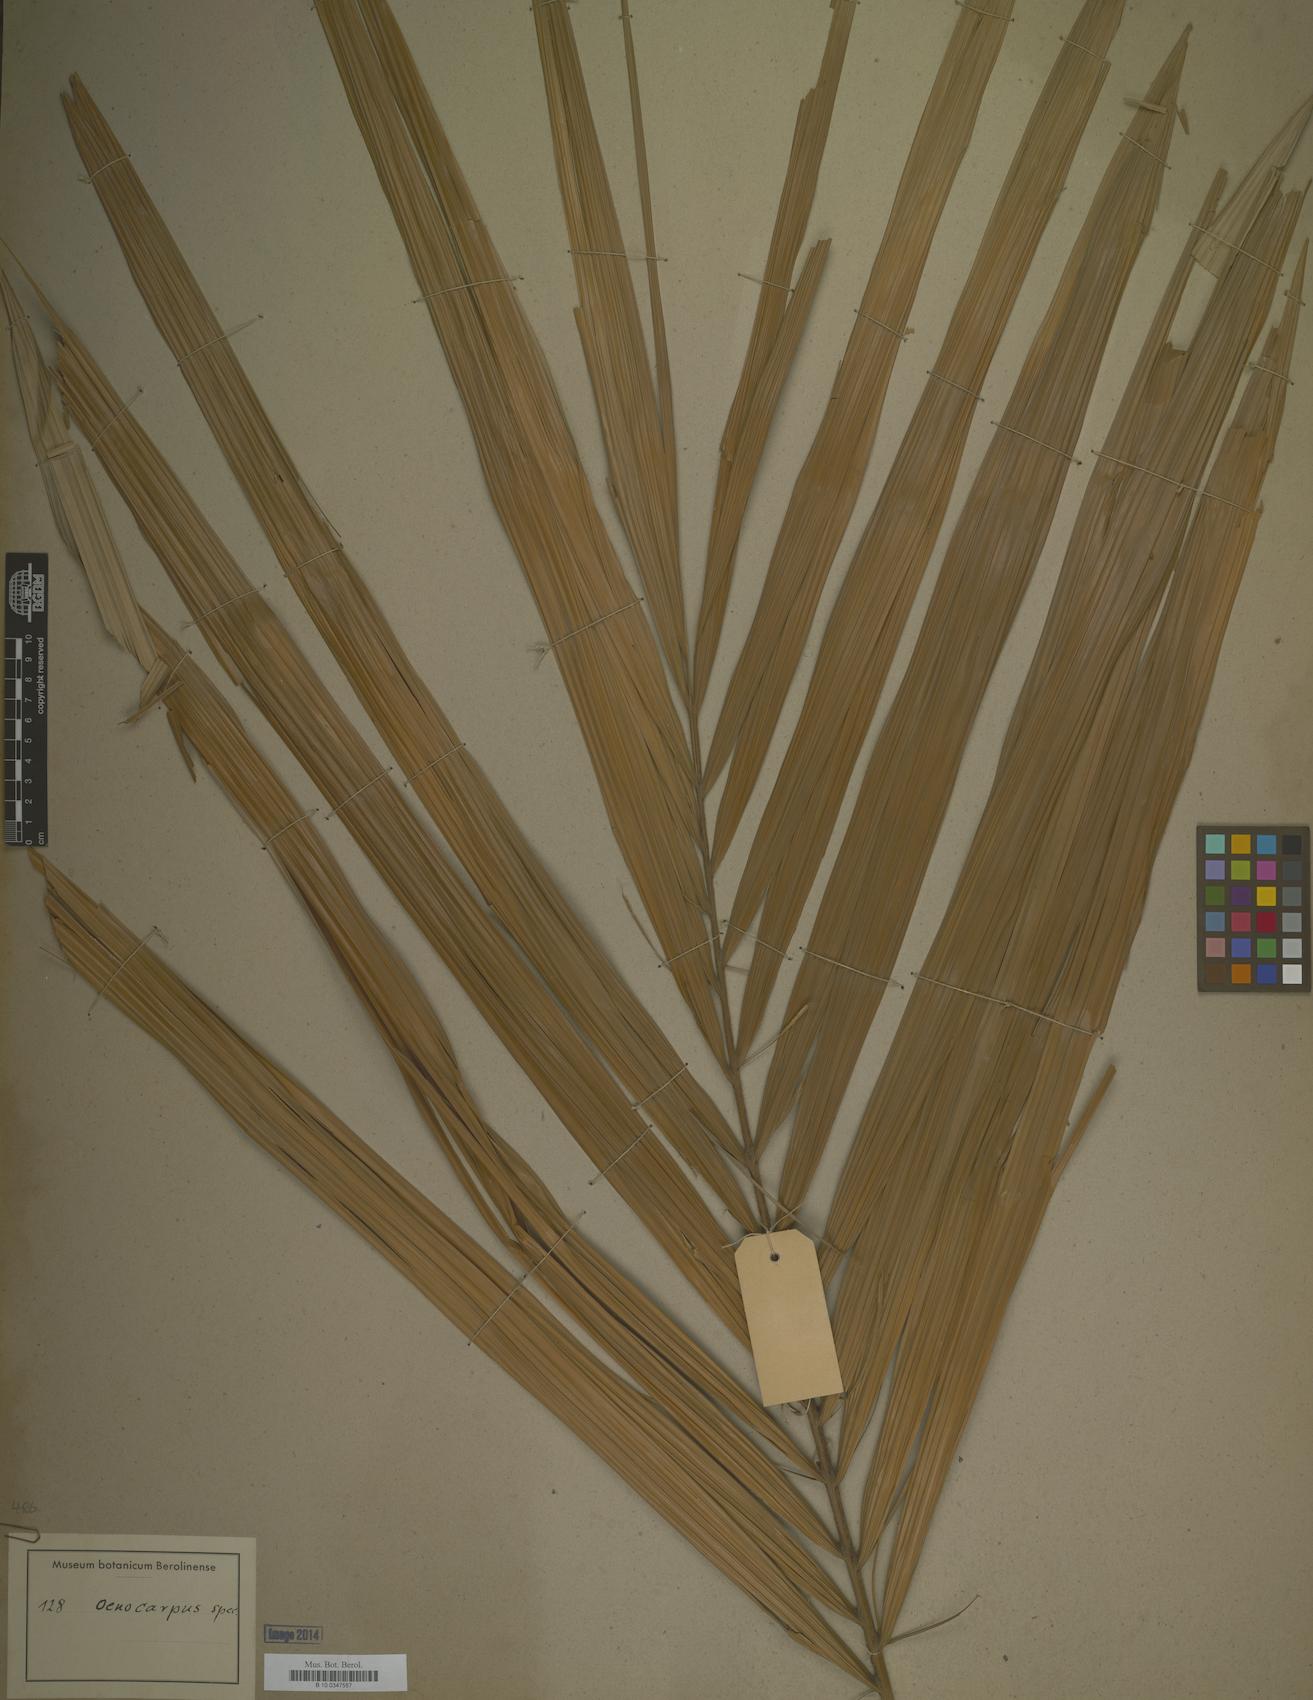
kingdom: Plantae
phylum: Tracheophyta
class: Liliopsida
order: Arecales
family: Arecaceae
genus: Oenocarpus
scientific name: Oenocarpus
